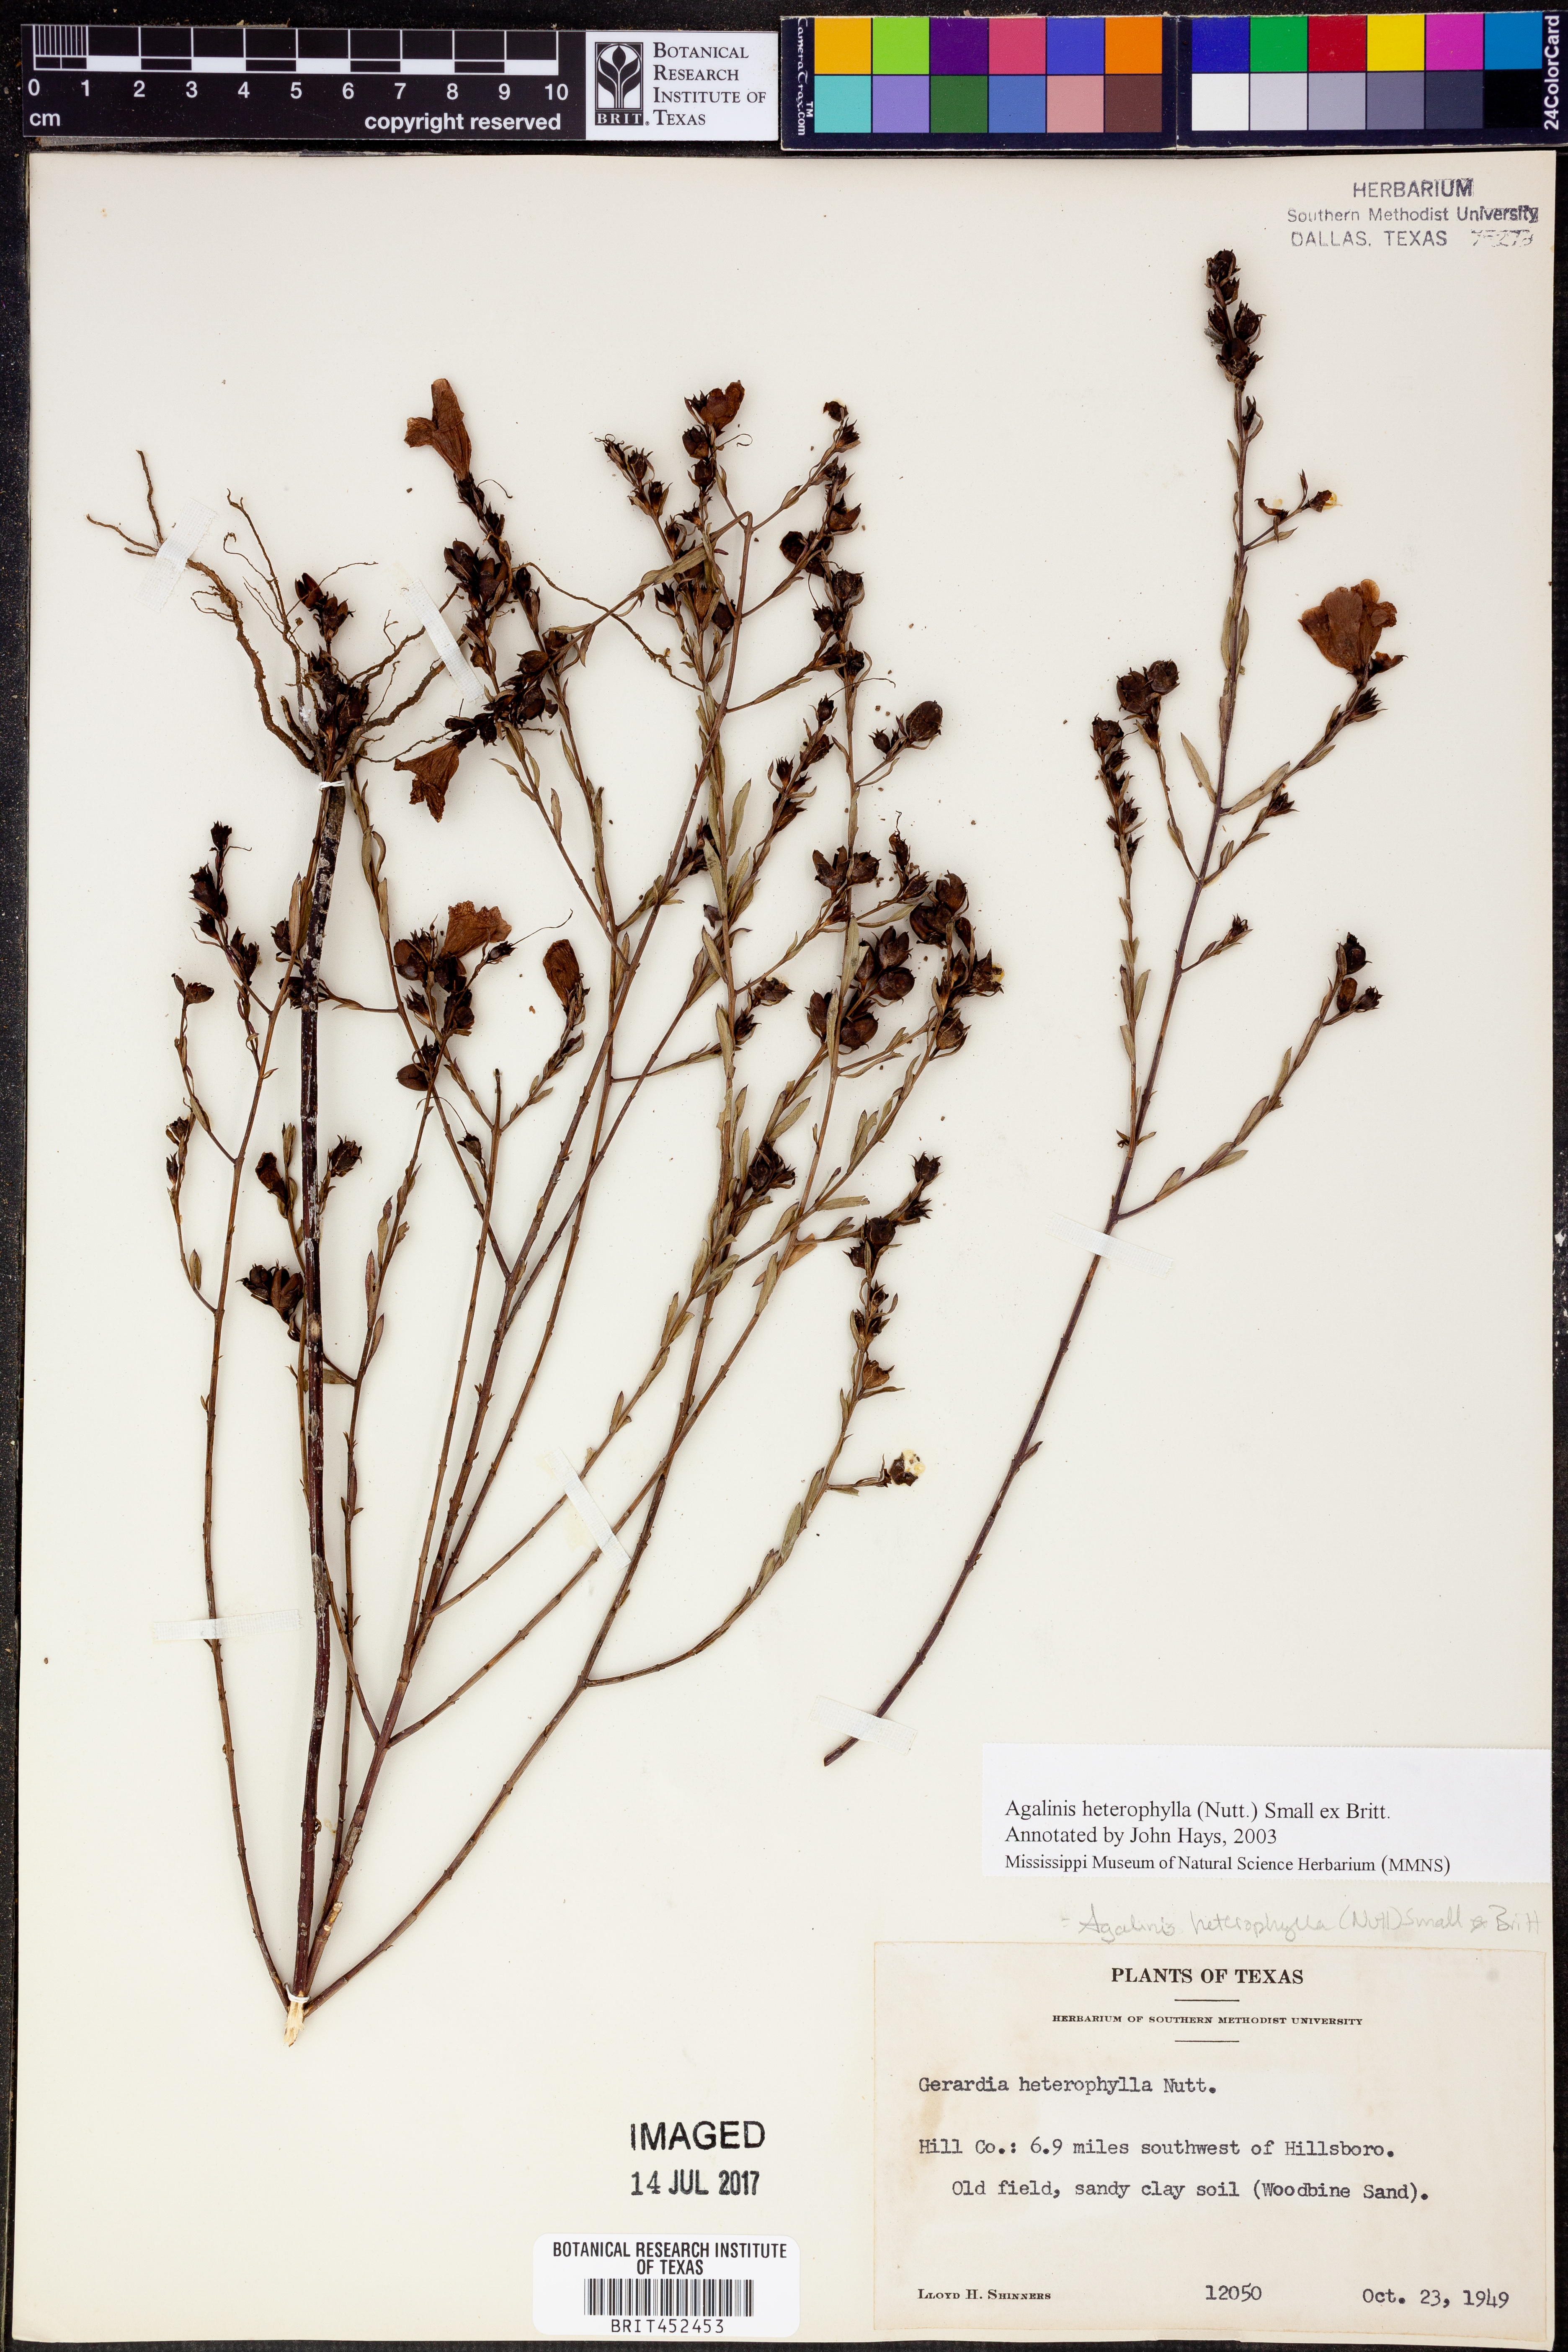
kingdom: Plantae
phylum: Tracheophyta
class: Magnoliopsida
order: Lamiales
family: Orobanchaceae
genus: Agalinis
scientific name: Agalinis heterophylla
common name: Prairie agalinis
